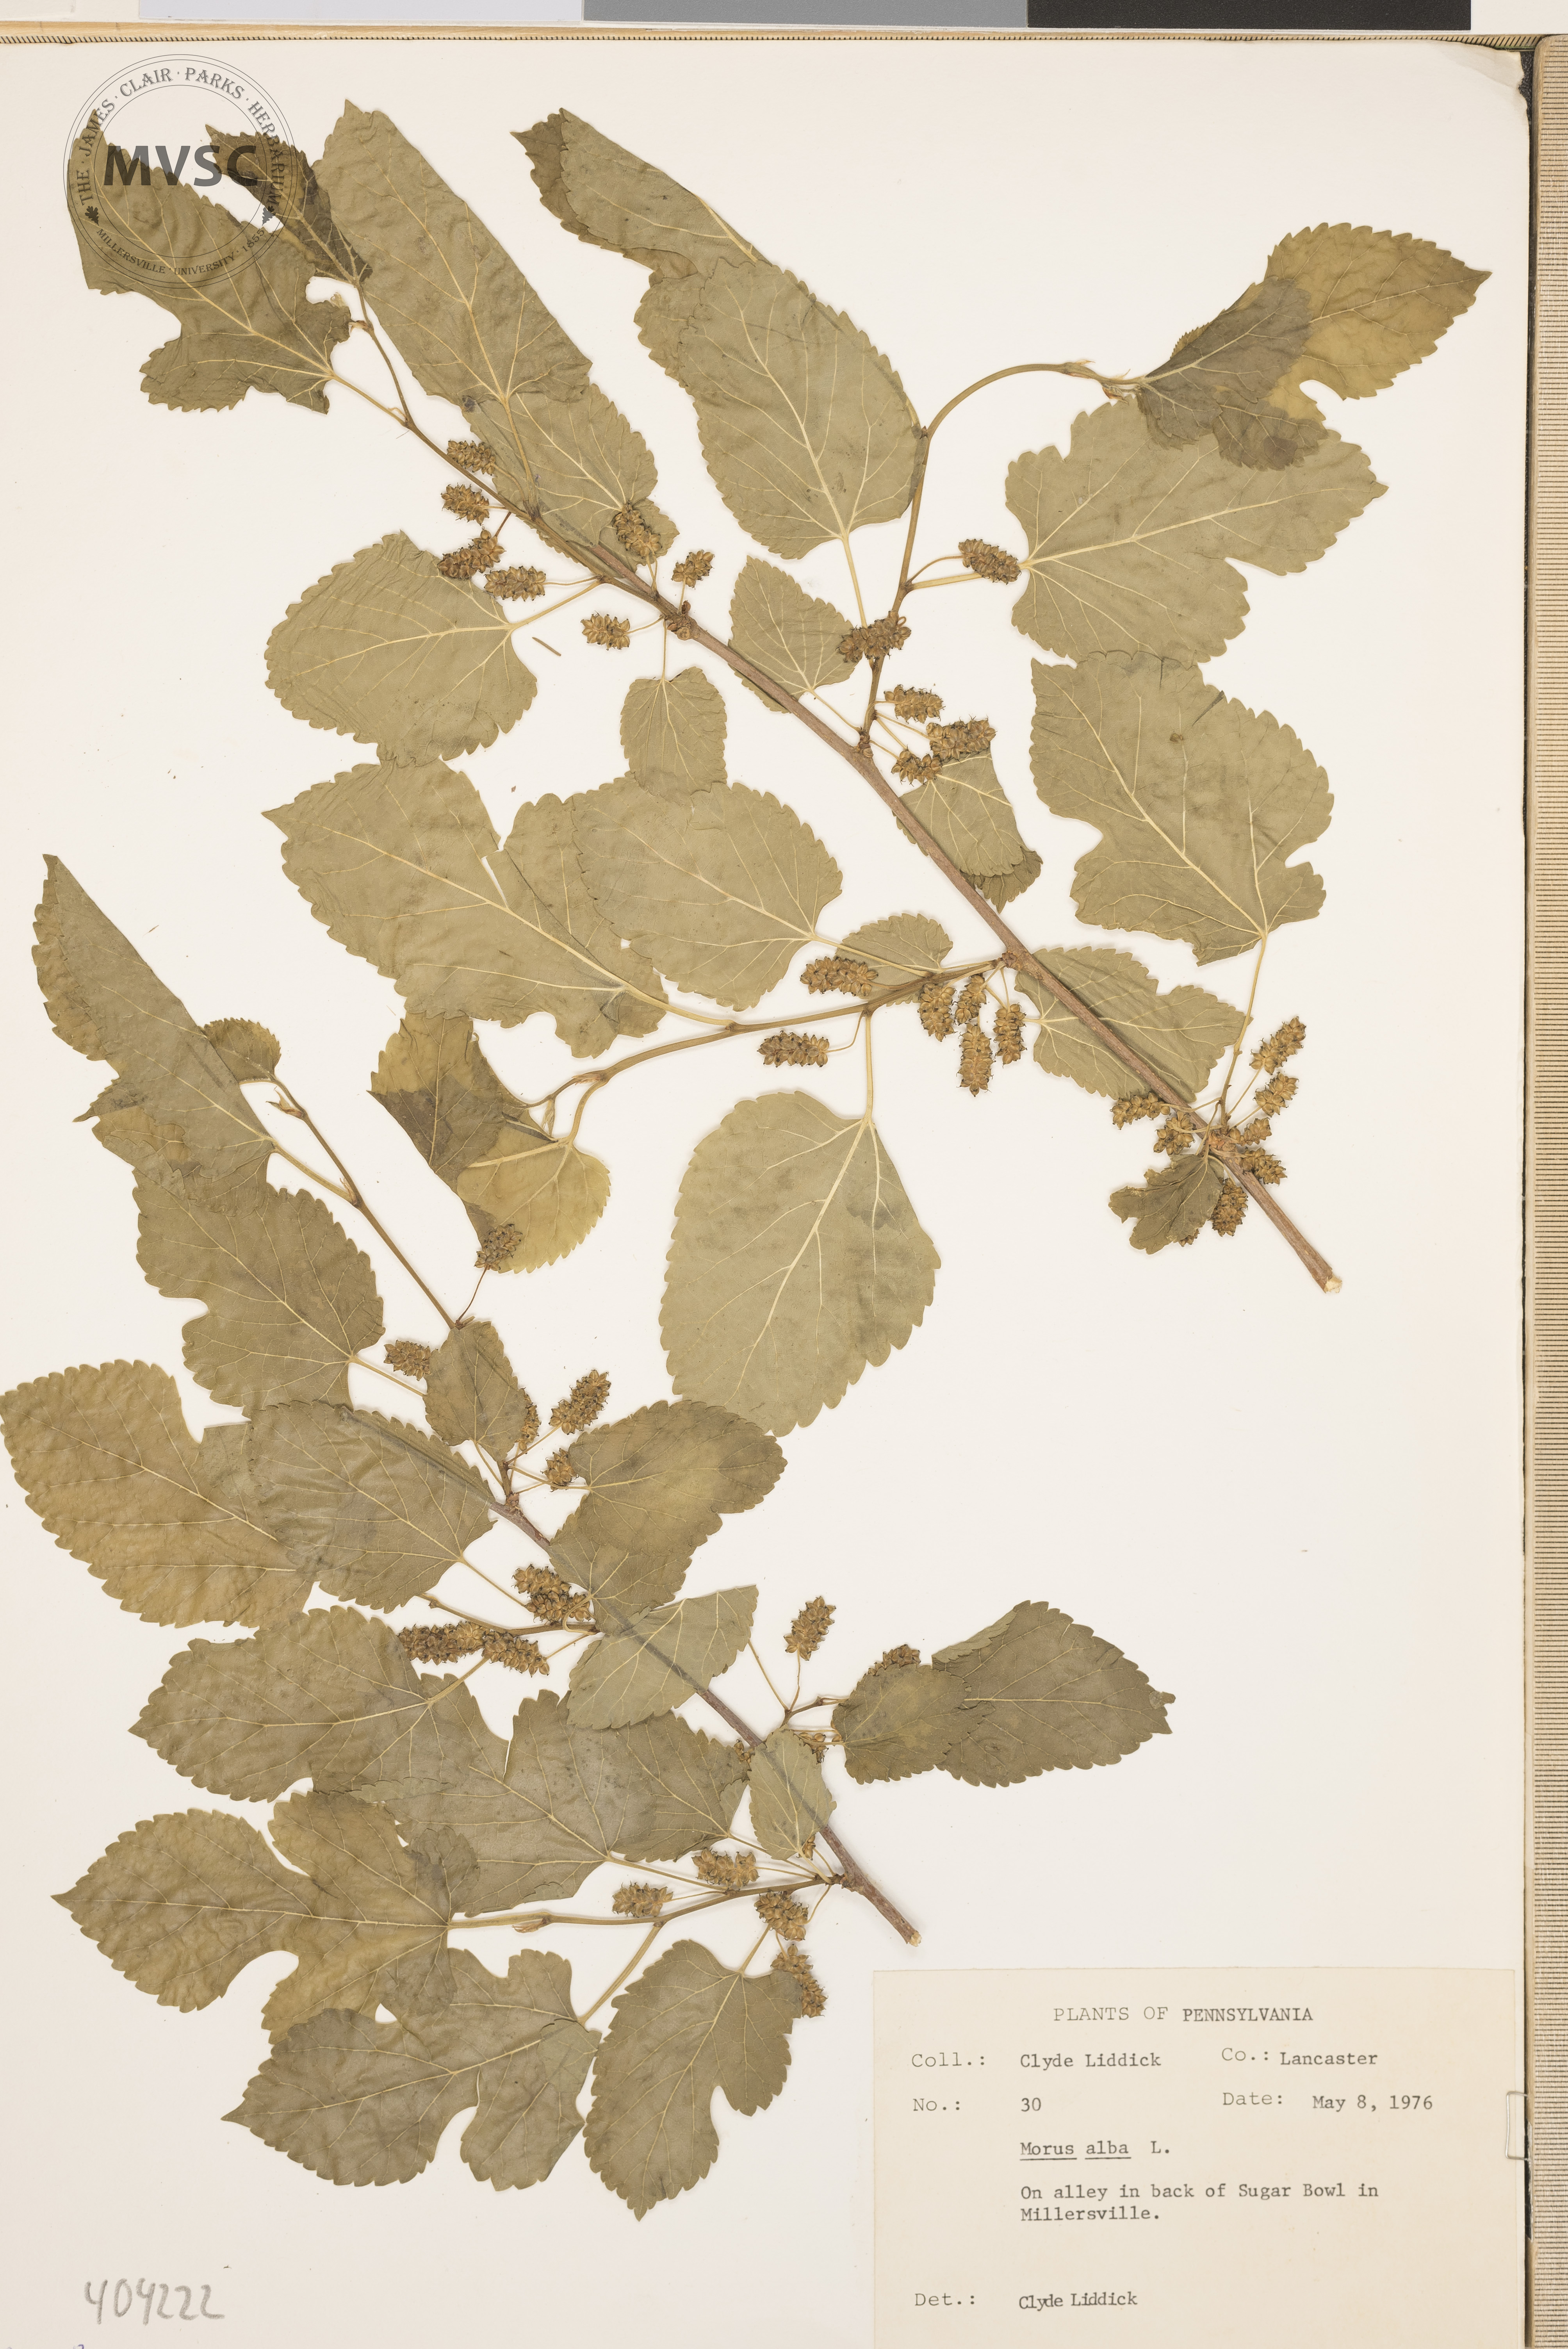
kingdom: Plantae
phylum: Tracheophyta
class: Magnoliopsida
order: Rosales
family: Moraceae
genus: Morus
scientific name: Morus alba
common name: White mulberry
